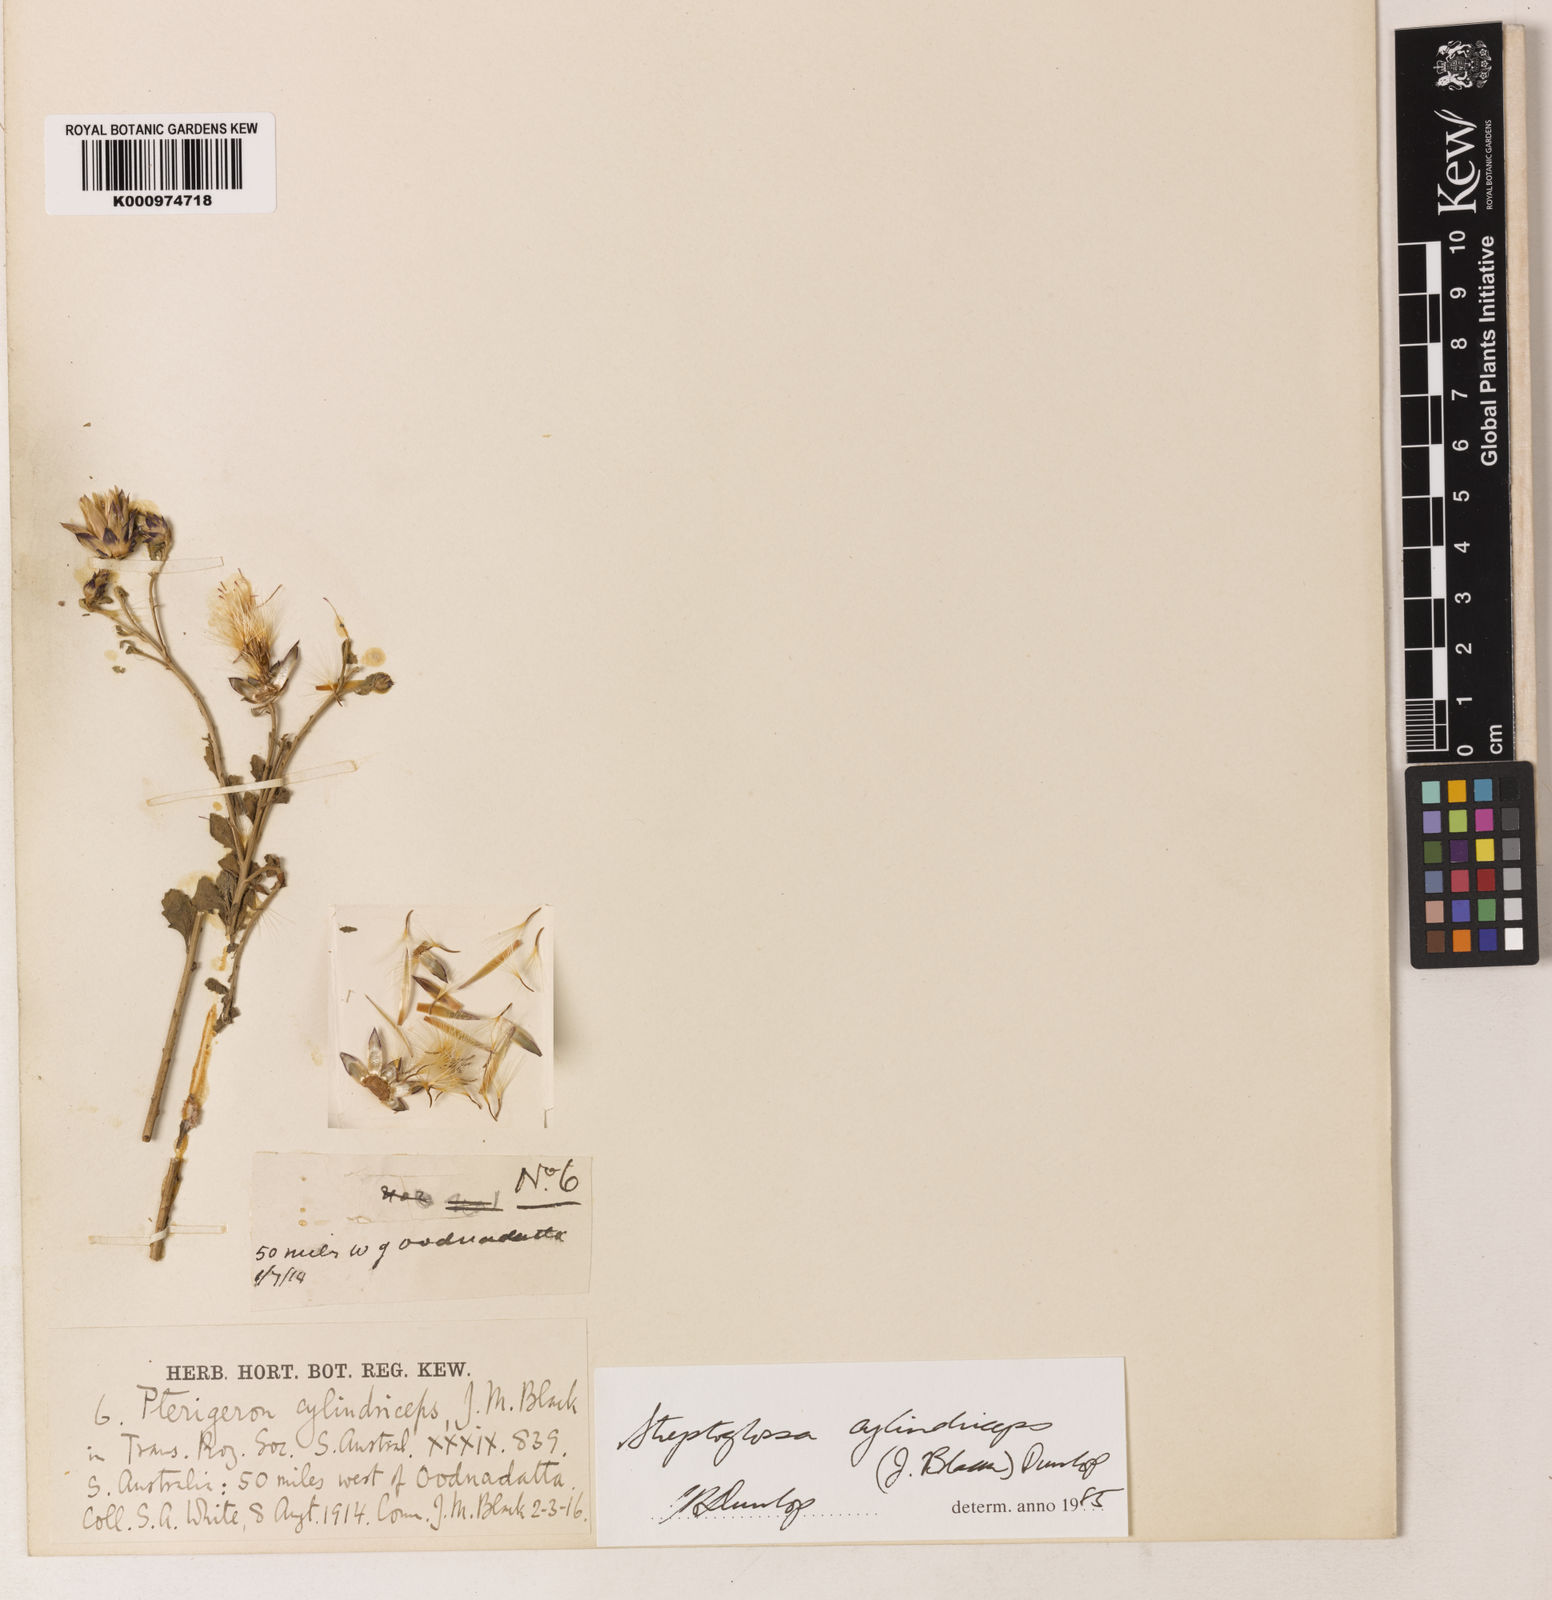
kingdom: Plantae
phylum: Tracheophyta
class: Magnoliopsida
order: Asterales
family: Asteraceae
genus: Streptoglossa
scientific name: Streptoglossa cylindriceps
